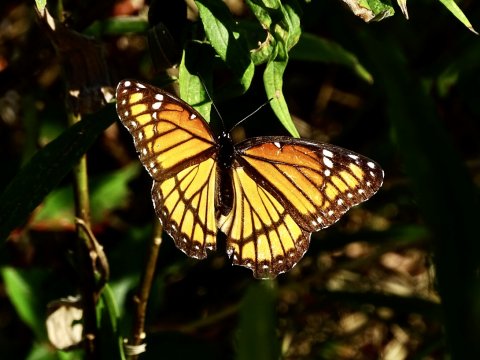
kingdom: Animalia
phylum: Arthropoda
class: Insecta
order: Lepidoptera
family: Nymphalidae
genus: Limenitis
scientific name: Limenitis archippus
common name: Viceroy
